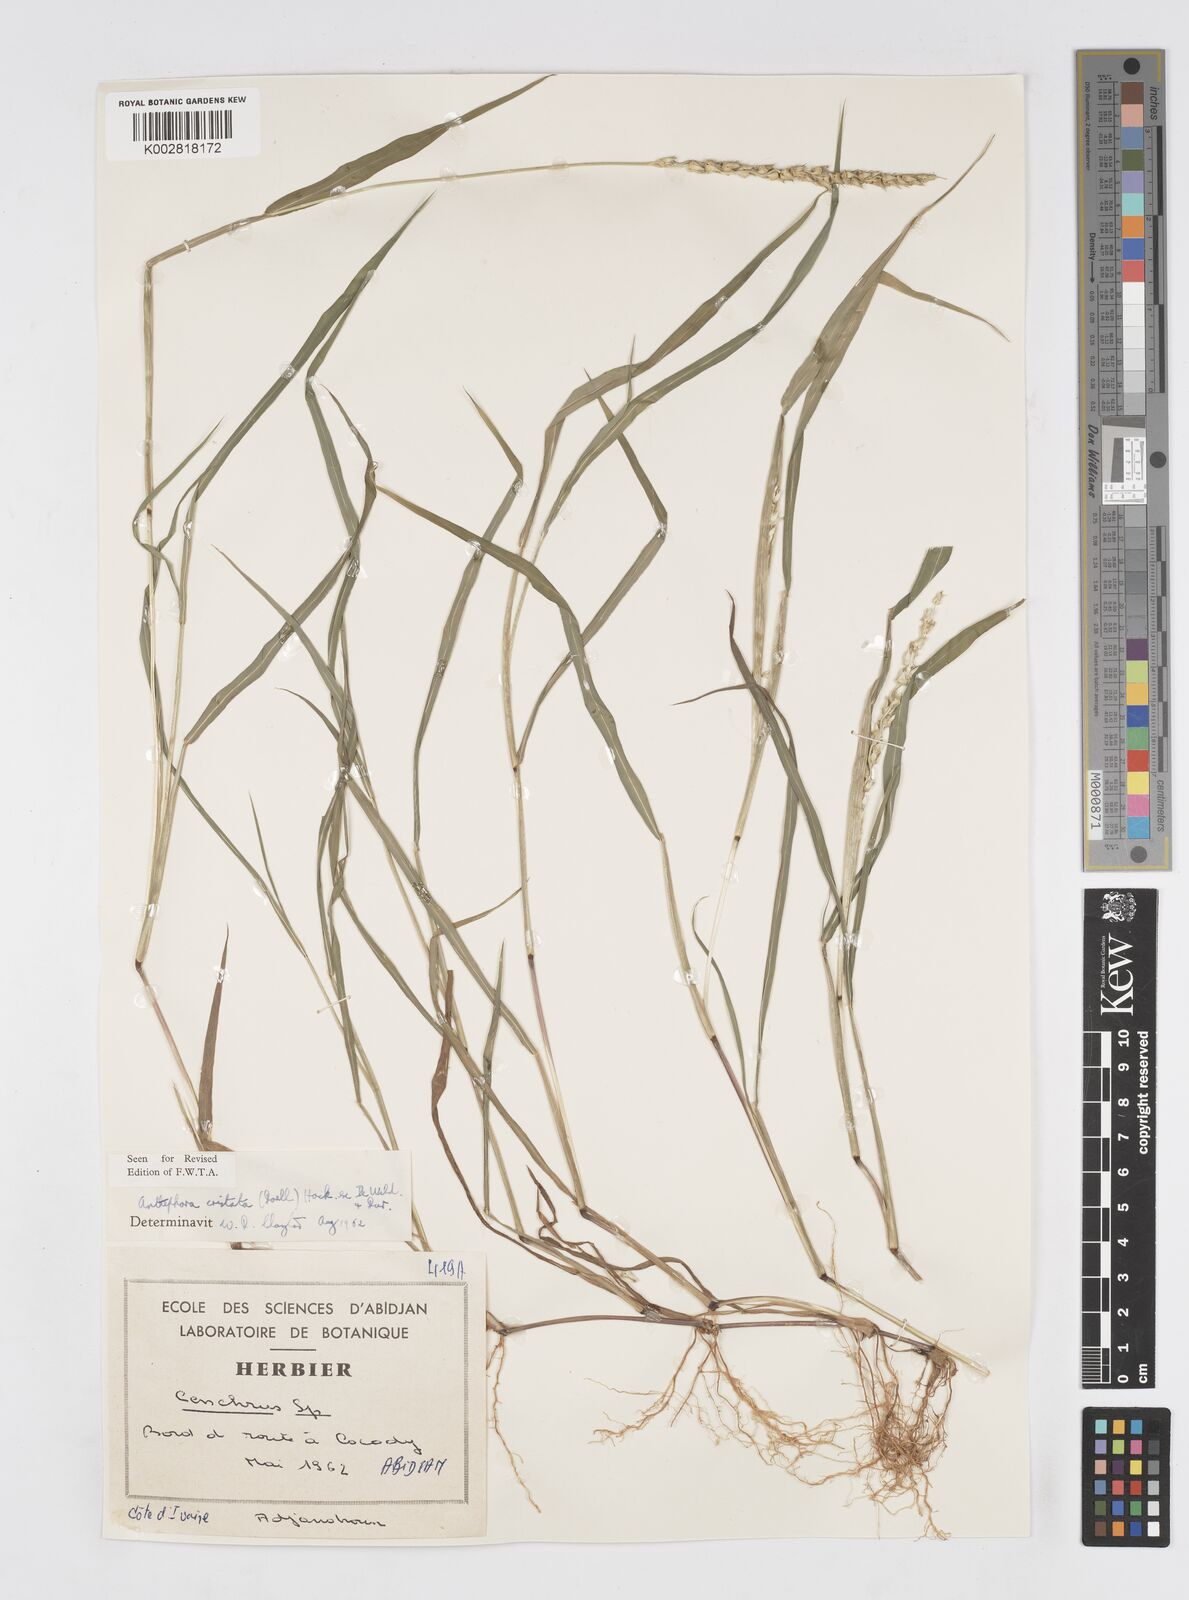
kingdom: Plantae
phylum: Tracheophyta
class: Liliopsida
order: Poales
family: Poaceae
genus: Anthephora
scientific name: Anthephora cristata
